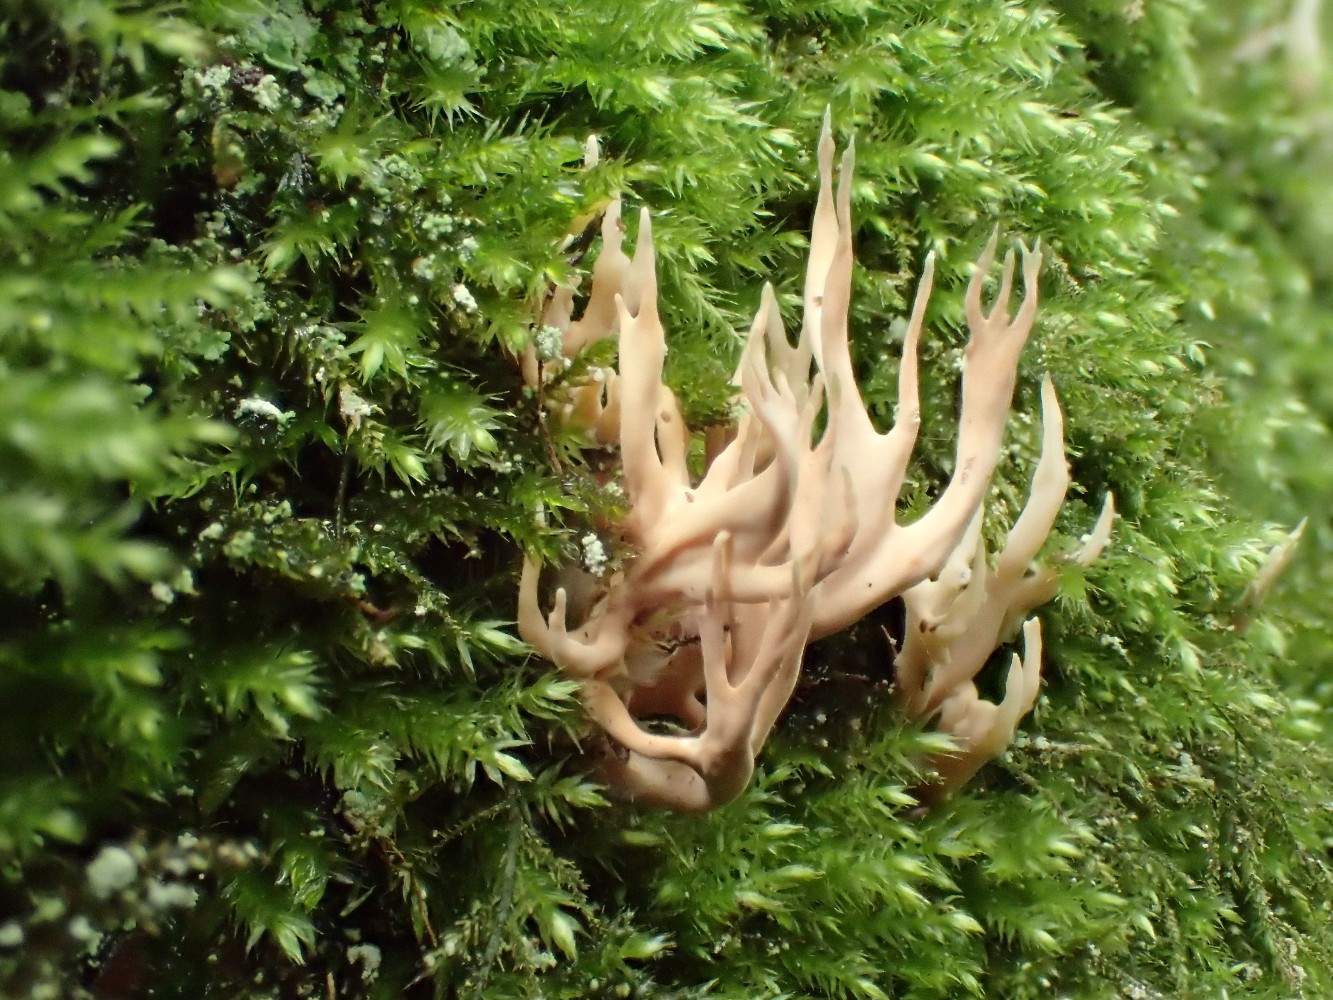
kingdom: Fungi
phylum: Basidiomycota
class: Agaricomycetes
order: Gomphales
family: Lentariaceae
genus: Lentaria
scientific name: Lentaria byssiseda
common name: kødfarvet grenkølle
